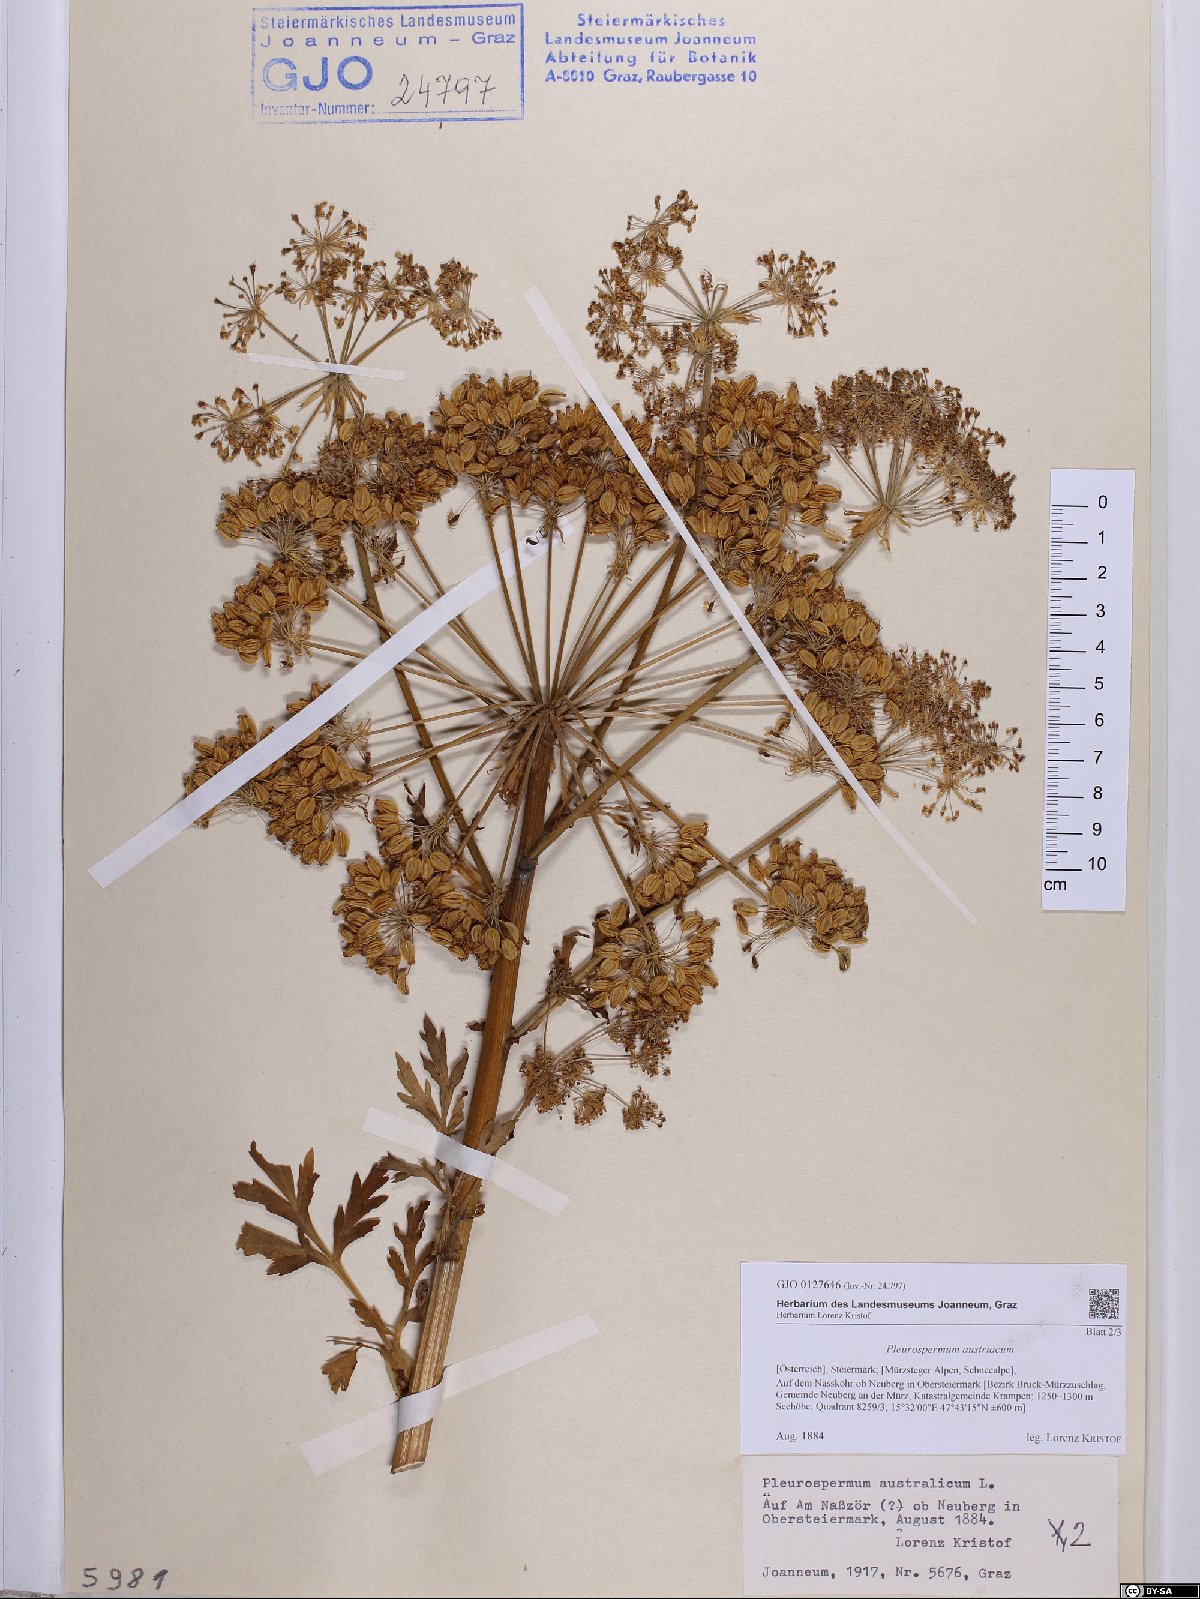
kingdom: Plantae
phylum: Tracheophyta
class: Magnoliopsida
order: Apiales
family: Apiaceae
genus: Pleurospermum
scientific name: Pleurospermum austriacum
